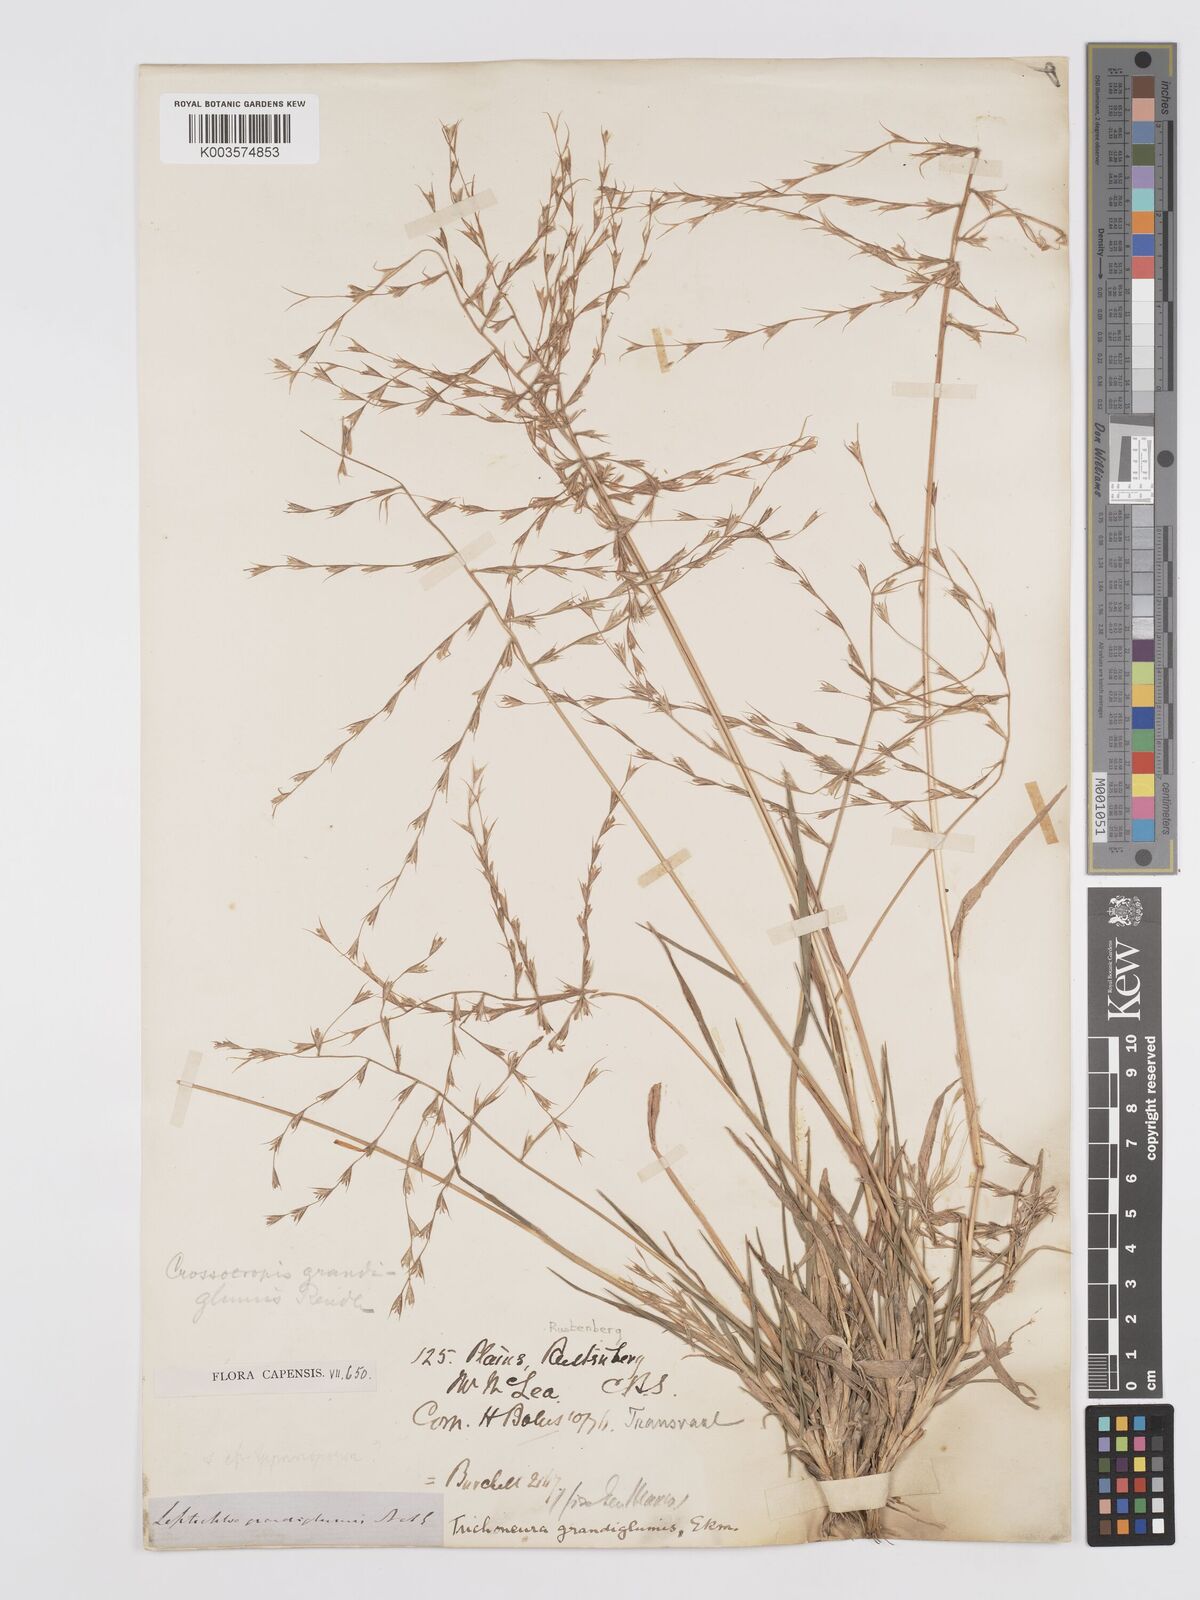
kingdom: Plantae
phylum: Tracheophyta
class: Liliopsida
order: Poales
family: Poaceae
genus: Trichoneura
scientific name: Trichoneura grandiglumis
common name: Rolling grass
